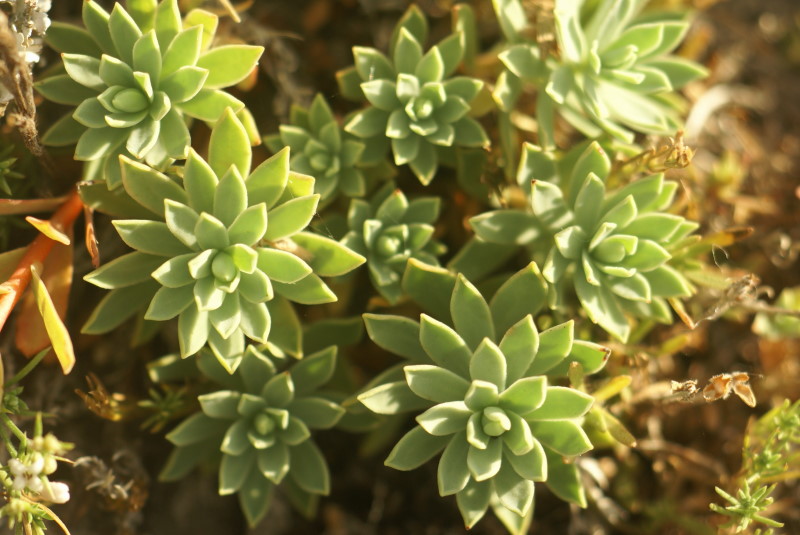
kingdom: Plantae
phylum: Tracheophyta
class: Magnoliopsida
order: Malpighiales
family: Euphorbiaceae
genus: Euphorbia
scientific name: Euphorbia petrophila
